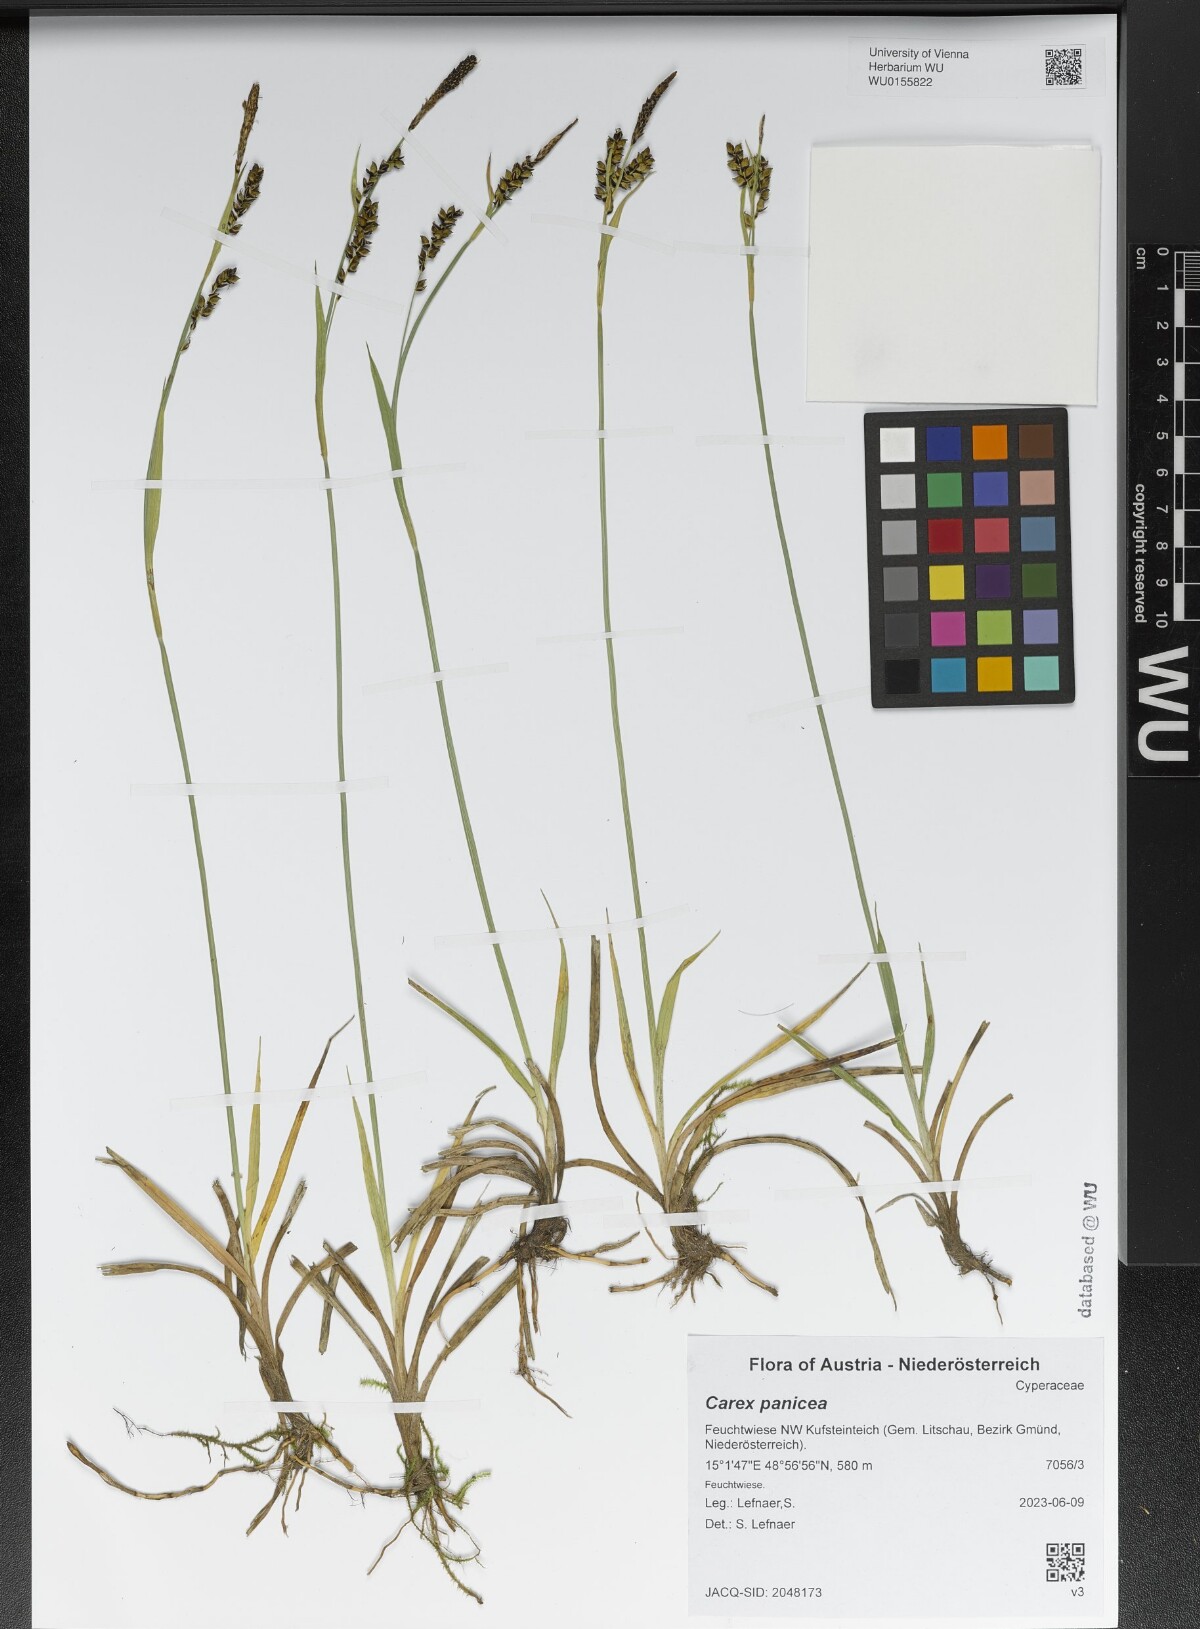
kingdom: Plantae
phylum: Tracheophyta
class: Liliopsida
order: Poales
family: Cyperaceae
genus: Carex
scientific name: Carex panicea
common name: Carnation sedge
